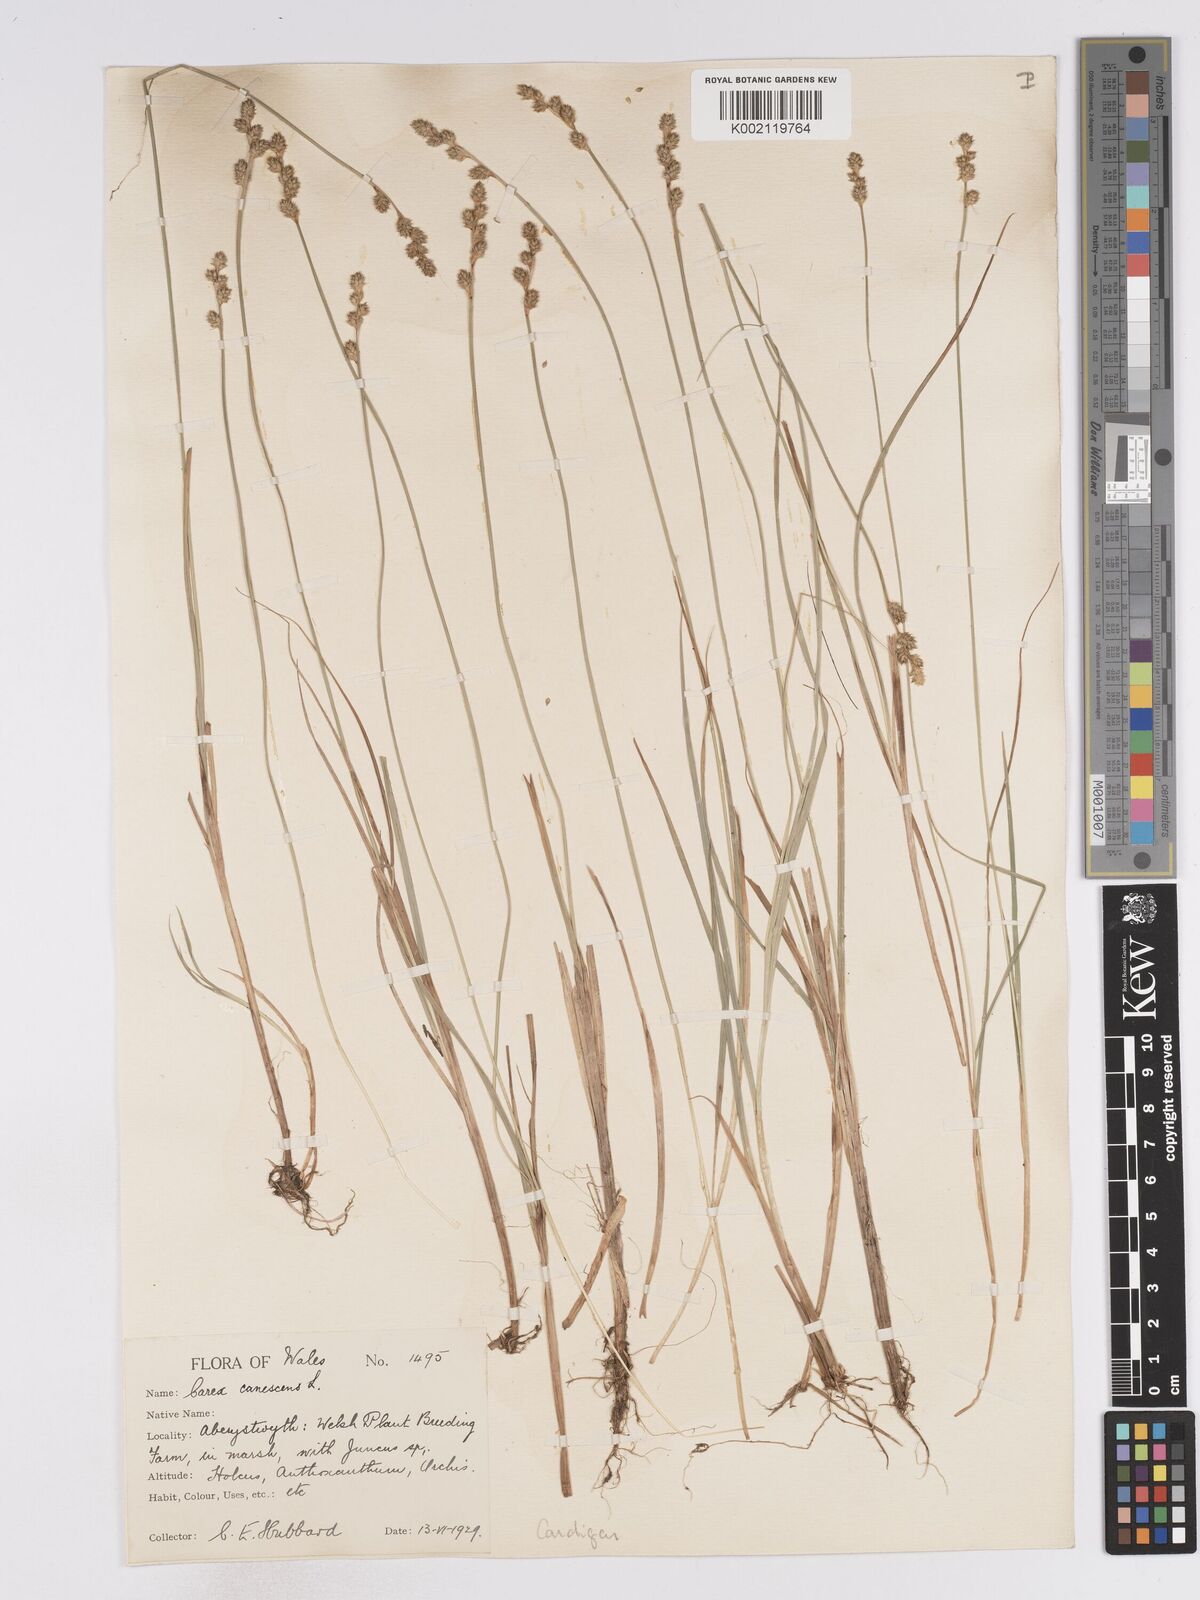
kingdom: Plantae
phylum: Tracheophyta
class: Liliopsida
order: Poales
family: Cyperaceae
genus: Carex
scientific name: Carex curta
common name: White sedge
